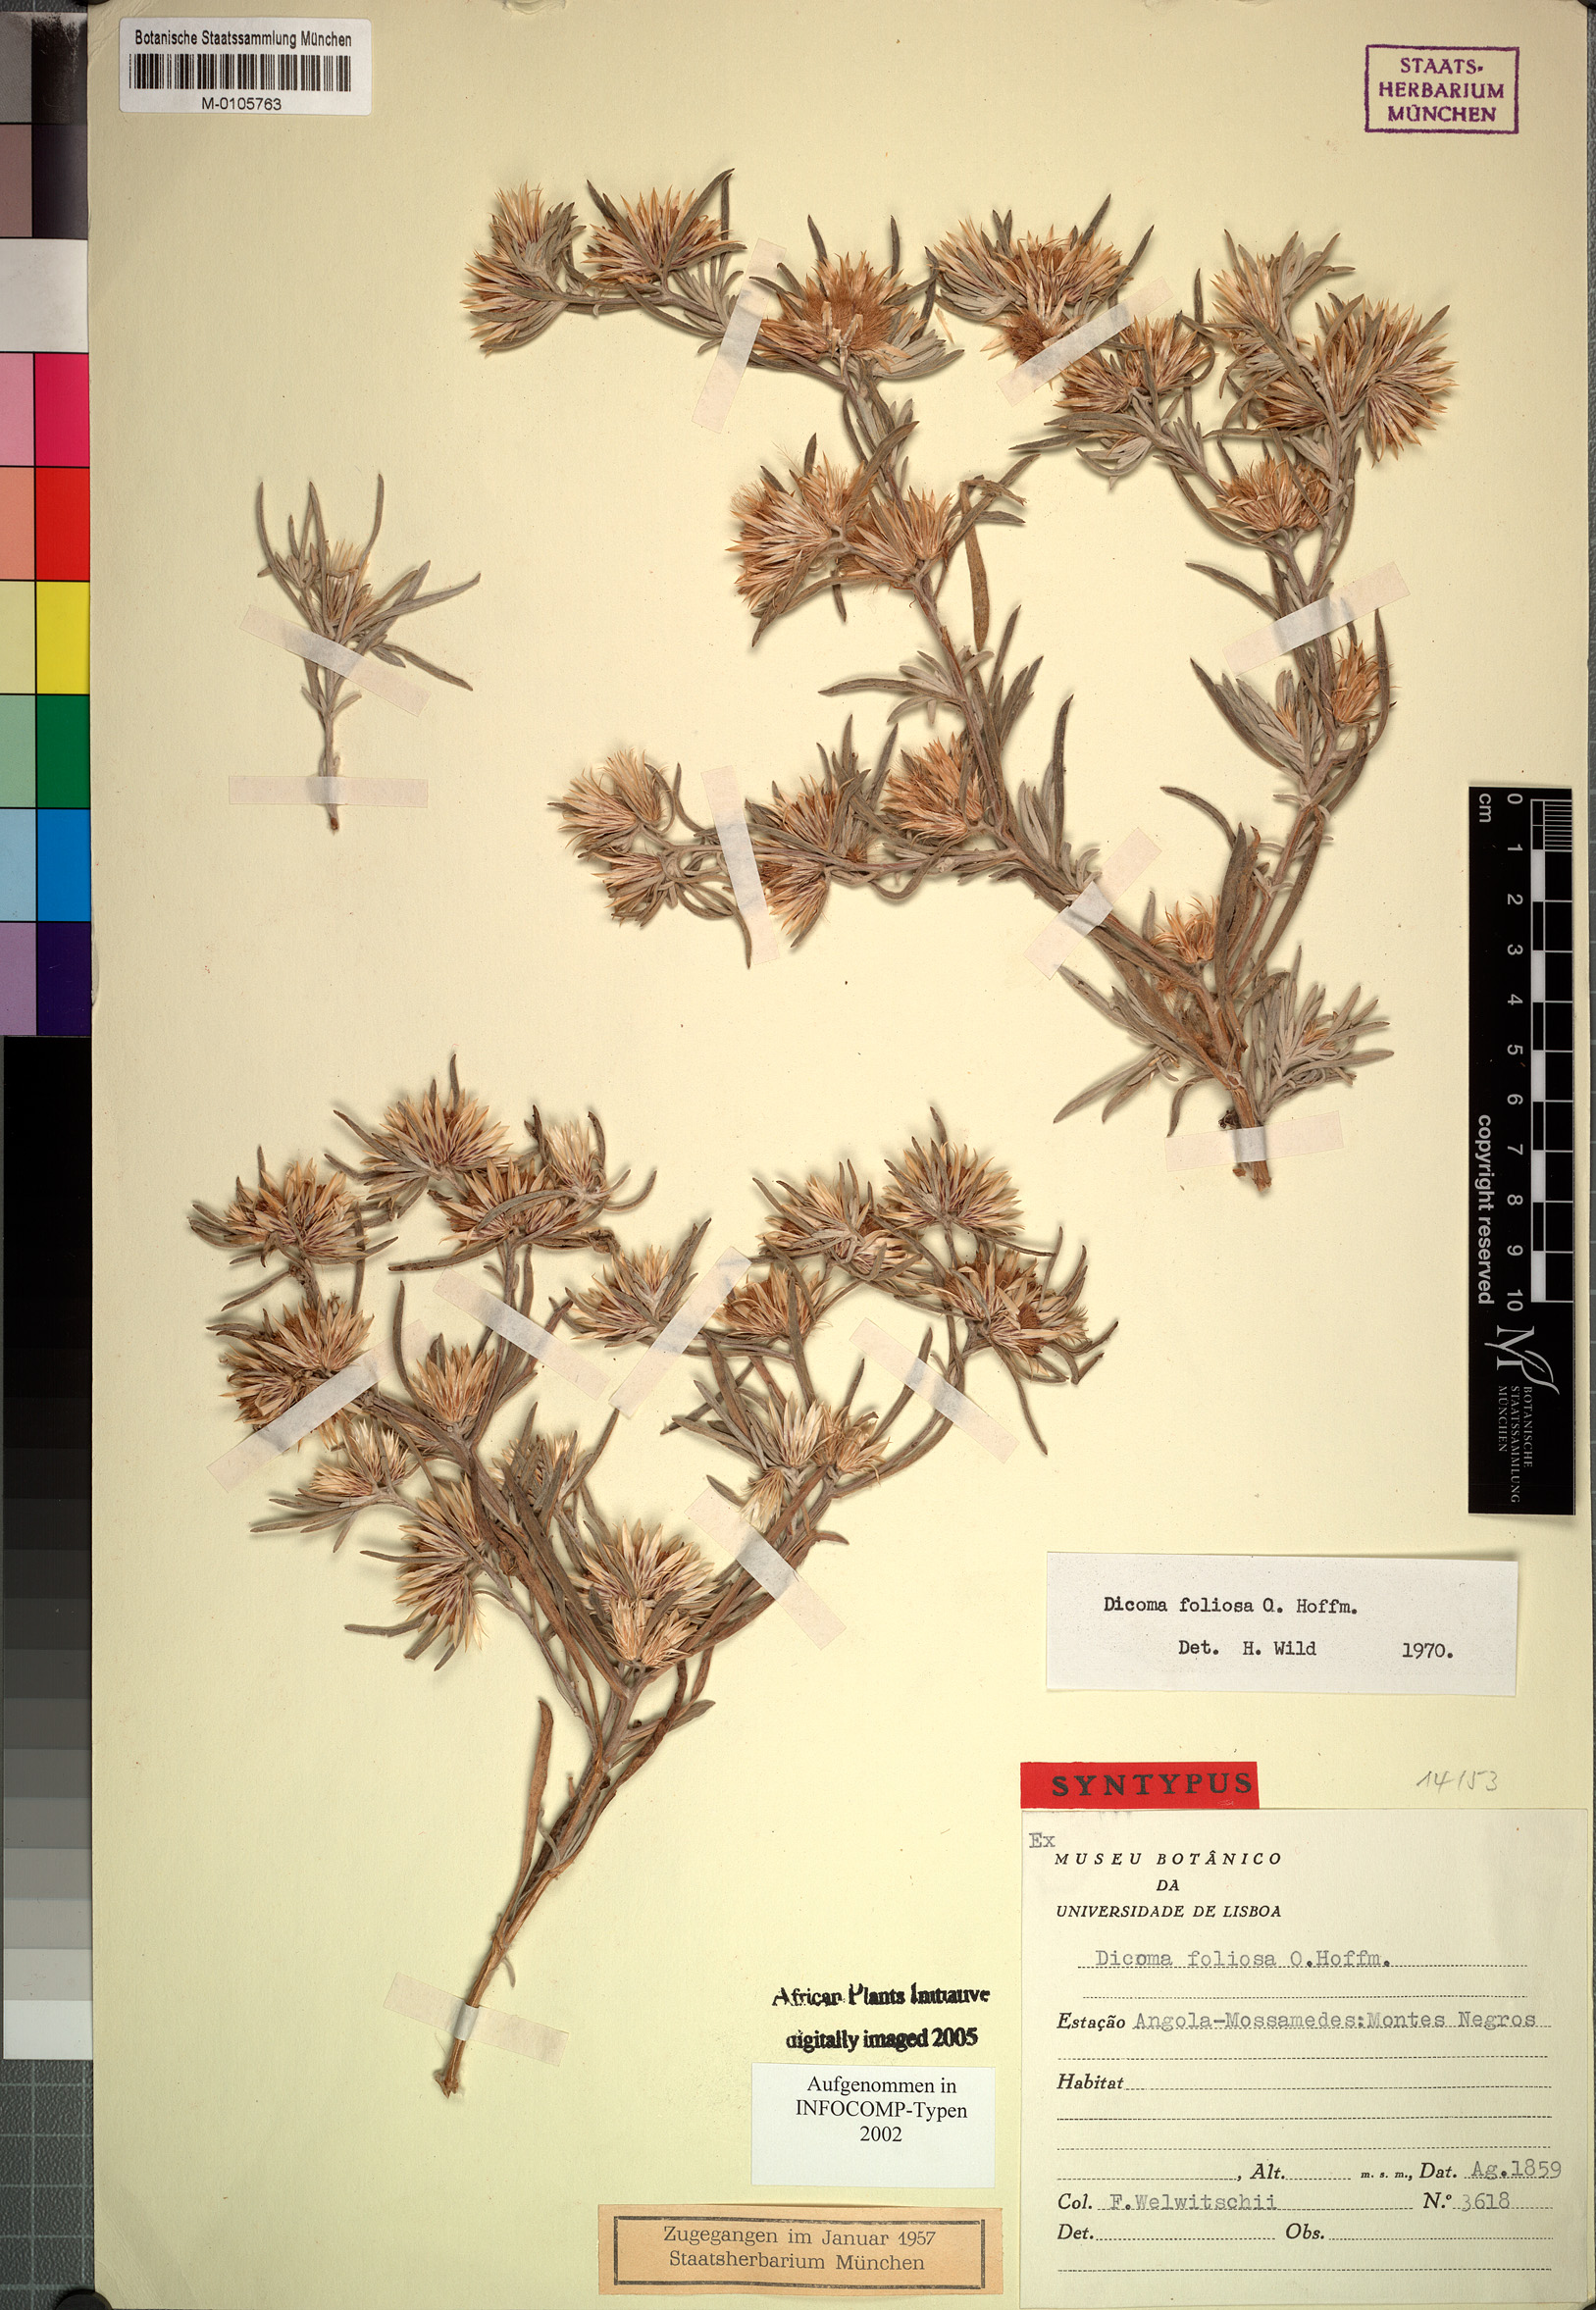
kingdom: Plantae
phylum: Tracheophyta
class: Magnoliopsida
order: Asterales
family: Asteraceae
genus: Dicoma
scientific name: Dicoma foliosa
